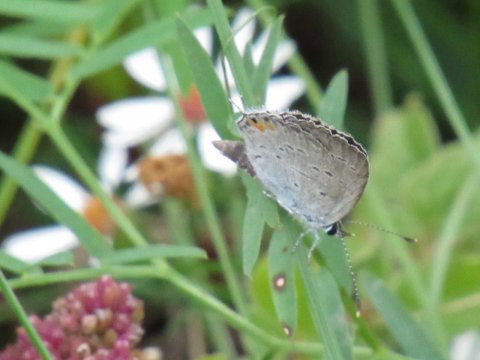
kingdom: Animalia
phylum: Arthropoda
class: Insecta
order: Lepidoptera
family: Lycaenidae
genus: Elkalyce
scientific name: Elkalyce comyntas
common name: Eastern Tailed-Blue
